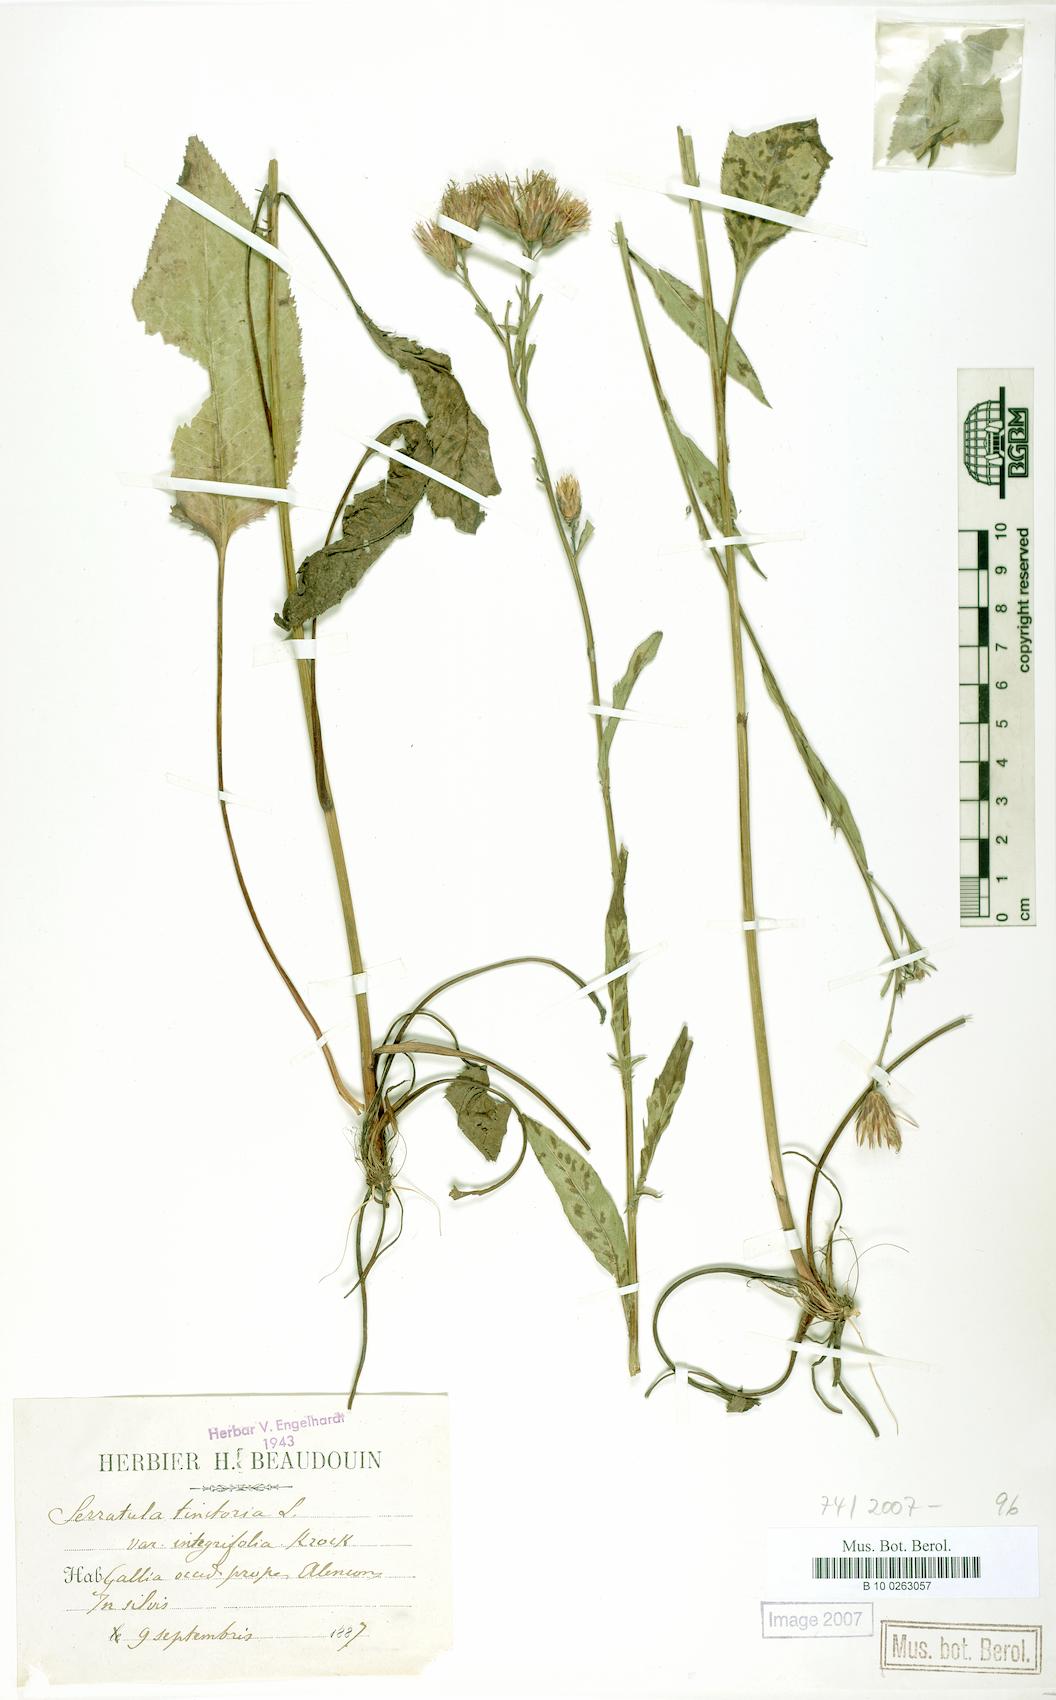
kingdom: Plantae
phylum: Tracheophyta
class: Magnoliopsida
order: Asterales
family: Asteraceae
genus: Serratula
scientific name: Serratula tinctoria
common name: Saw-wort
